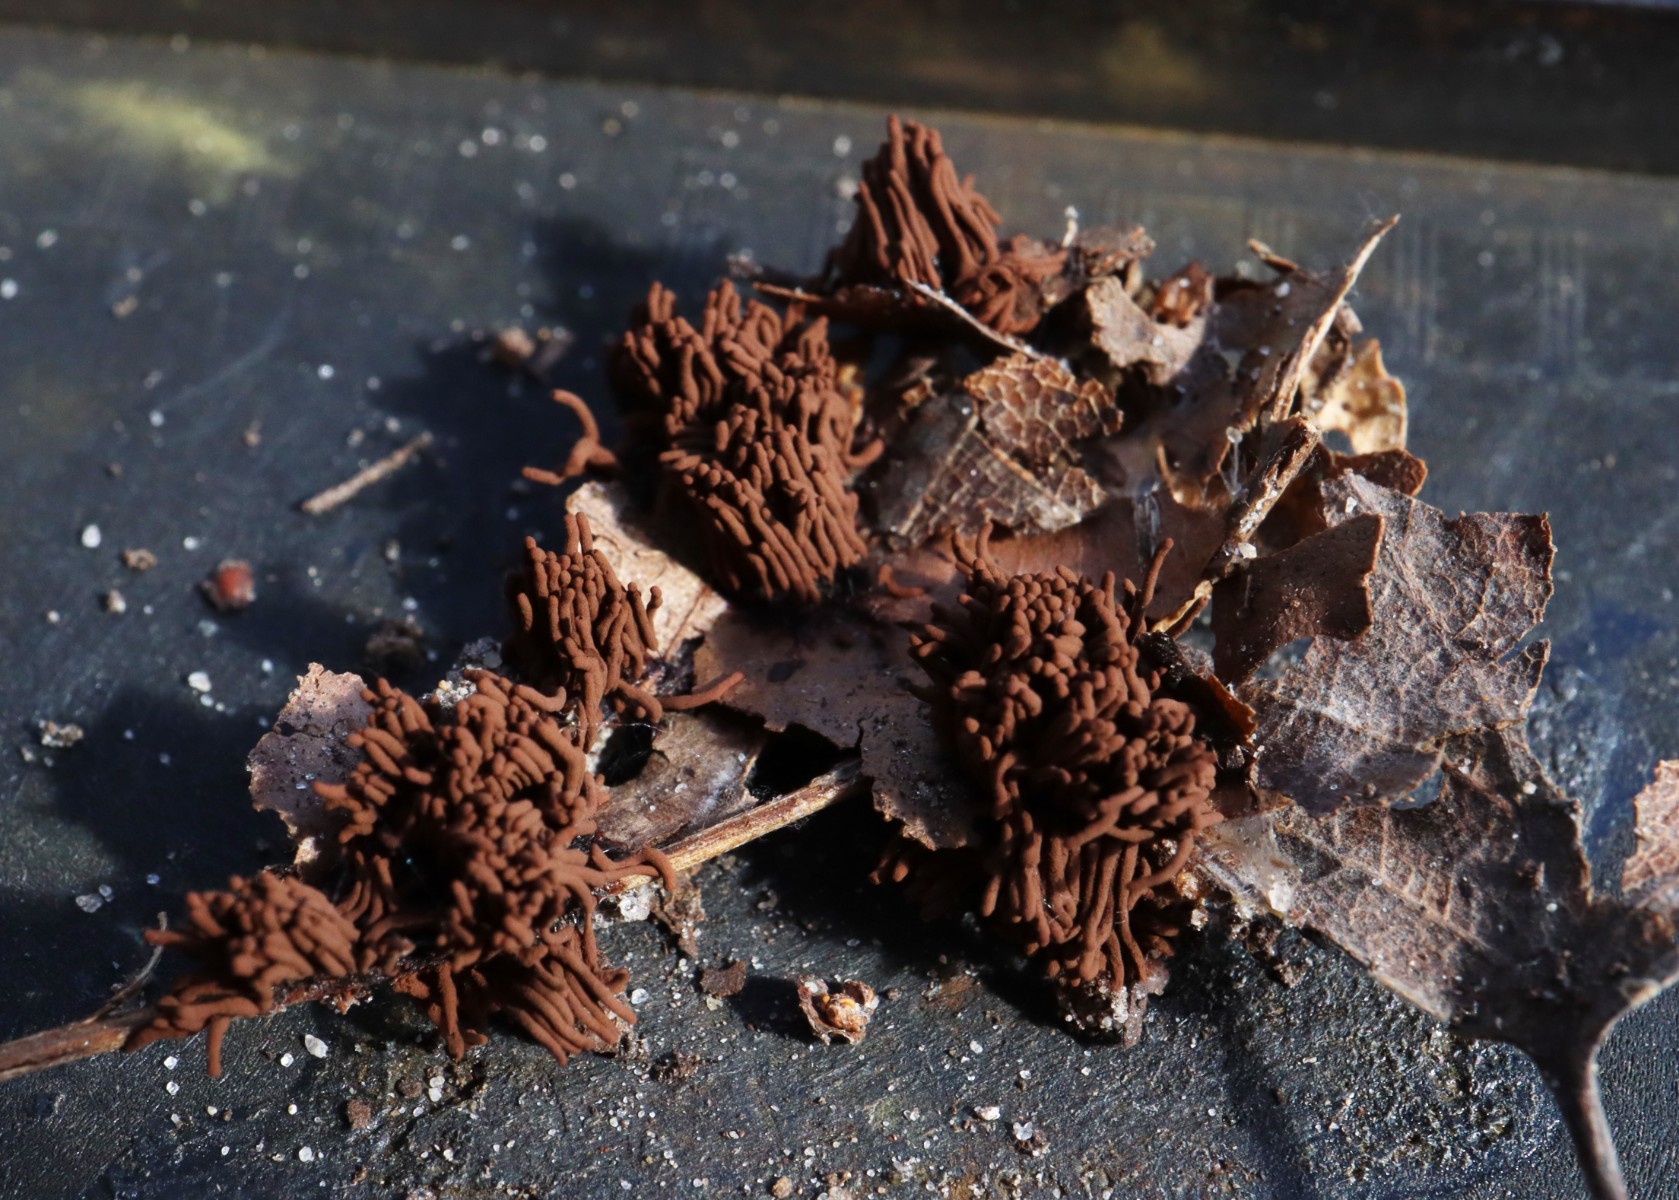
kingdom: Protozoa
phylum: Mycetozoa
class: Myxomycetes
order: Stemonitidales
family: Stemonitidaceae
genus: Stemonitis
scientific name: Stemonitis herbatica
